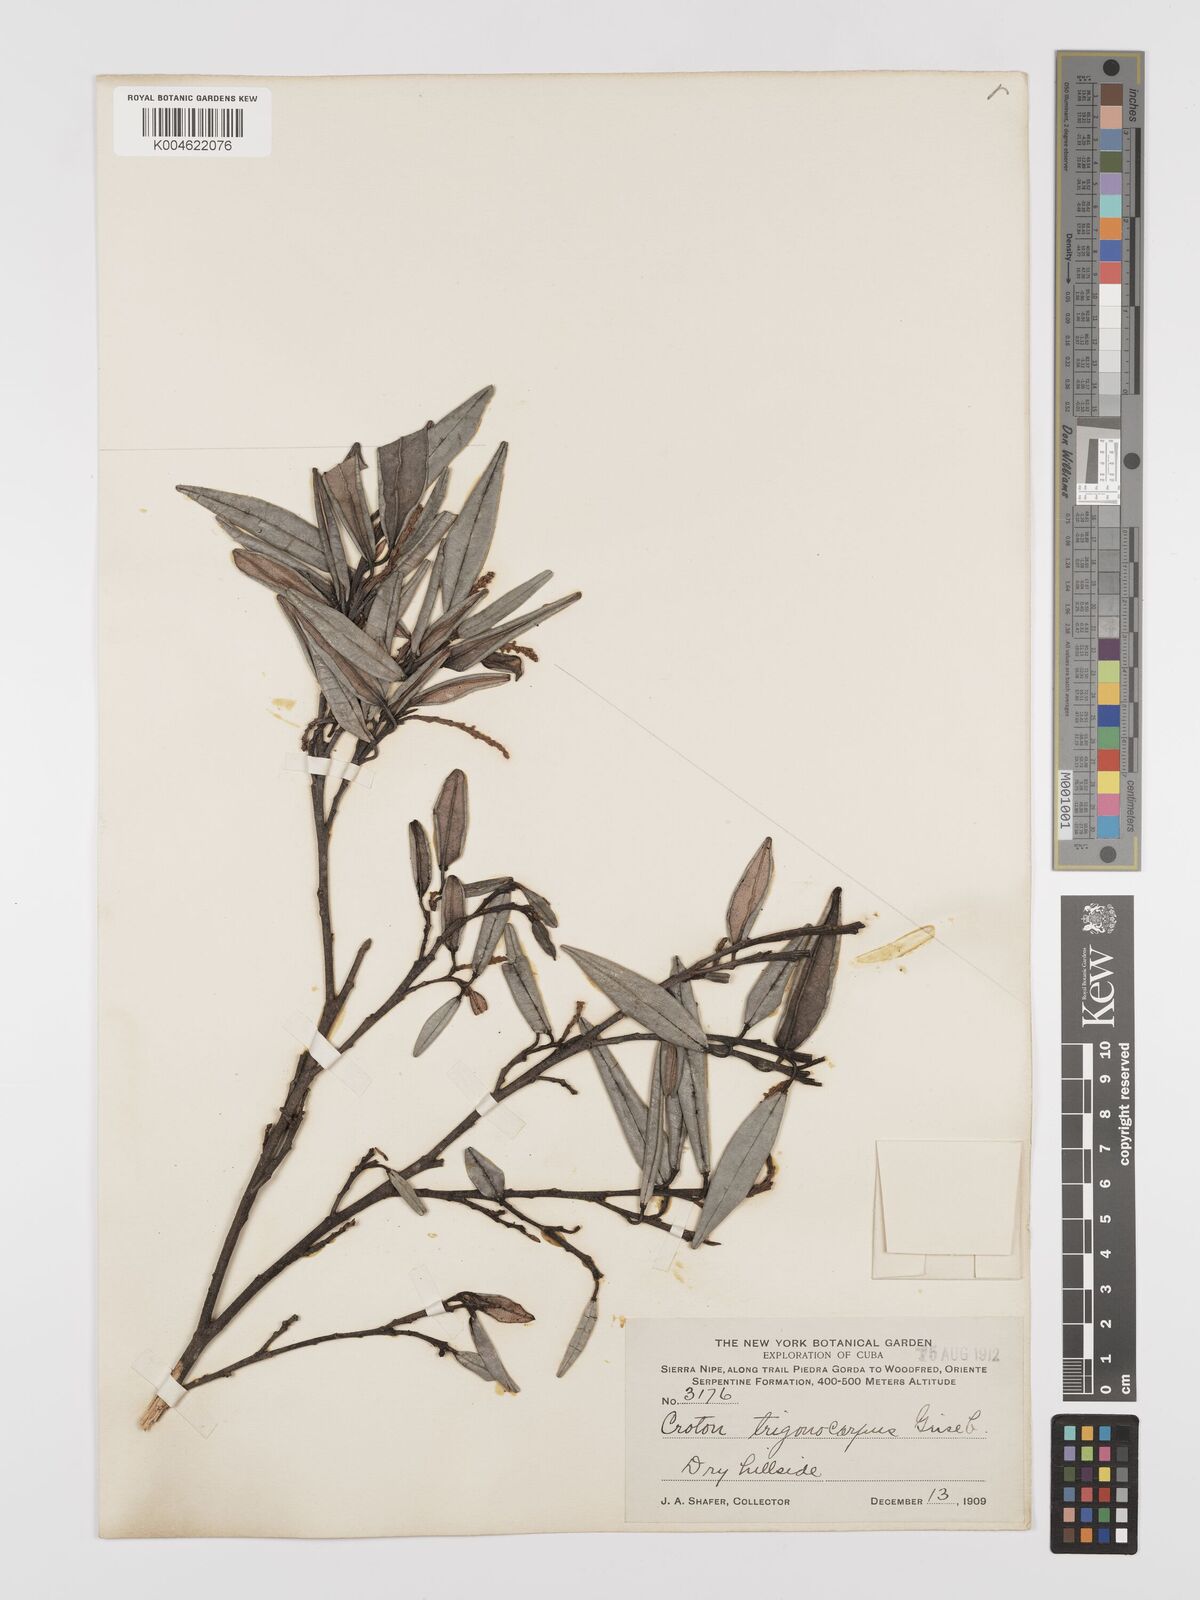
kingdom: Plantae
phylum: Tracheophyta
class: Magnoliopsida
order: Malpighiales
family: Euphorbiaceae
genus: Croton
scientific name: Croton trigonocarpus
